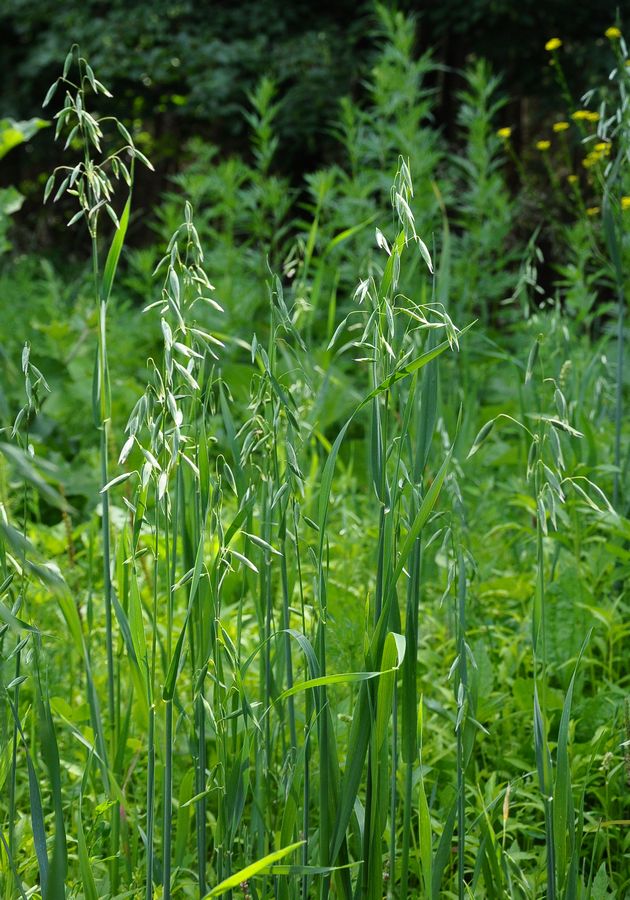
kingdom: Plantae
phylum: Tracheophyta
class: Liliopsida
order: Poales
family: Poaceae
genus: Avena
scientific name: Avena sativa
